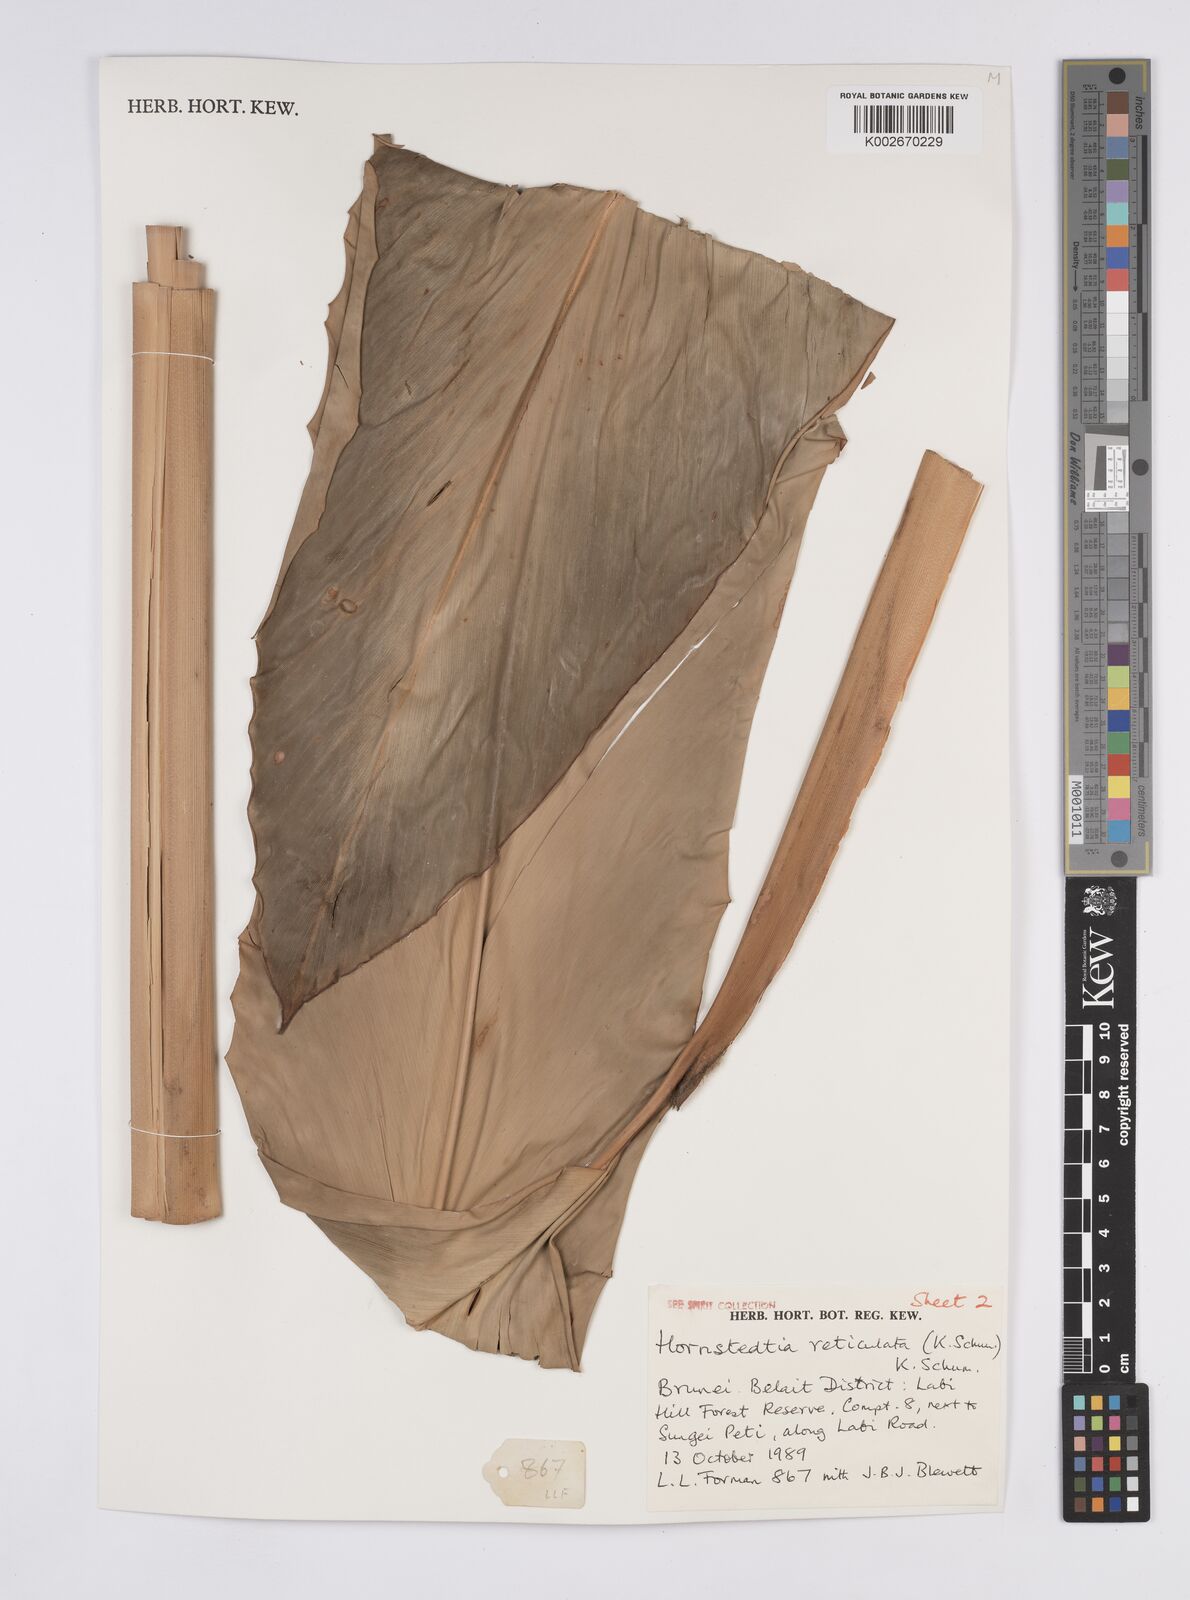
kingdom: Plantae
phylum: Tracheophyta
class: Liliopsida
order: Zingiberales
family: Zingiberaceae
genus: Hornstedtia
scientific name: Hornstedtia reticulata
